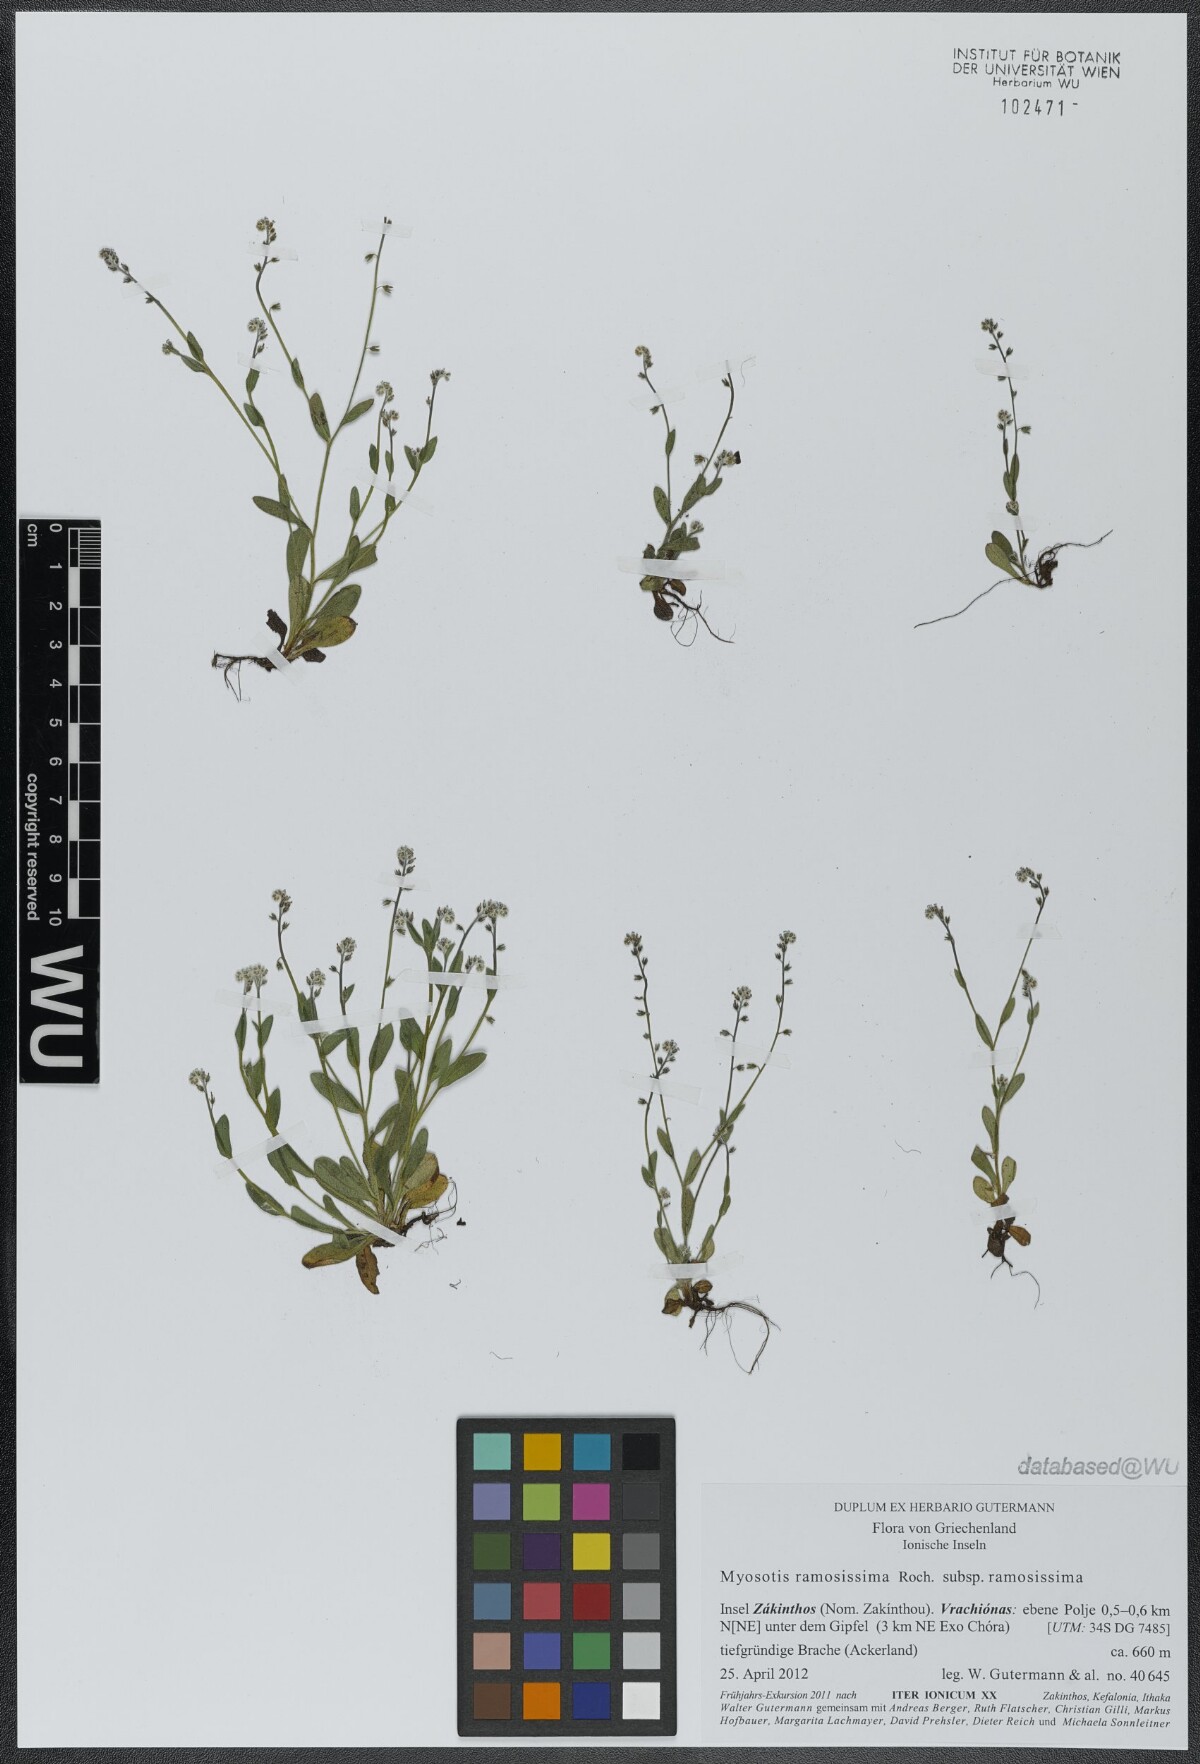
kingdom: Plantae
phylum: Tracheophyta
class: Magnoliopsida
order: Boraginales
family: Boraginaceae
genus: Myosotis
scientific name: Myosotis ramosissima
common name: Early forget-me-not
